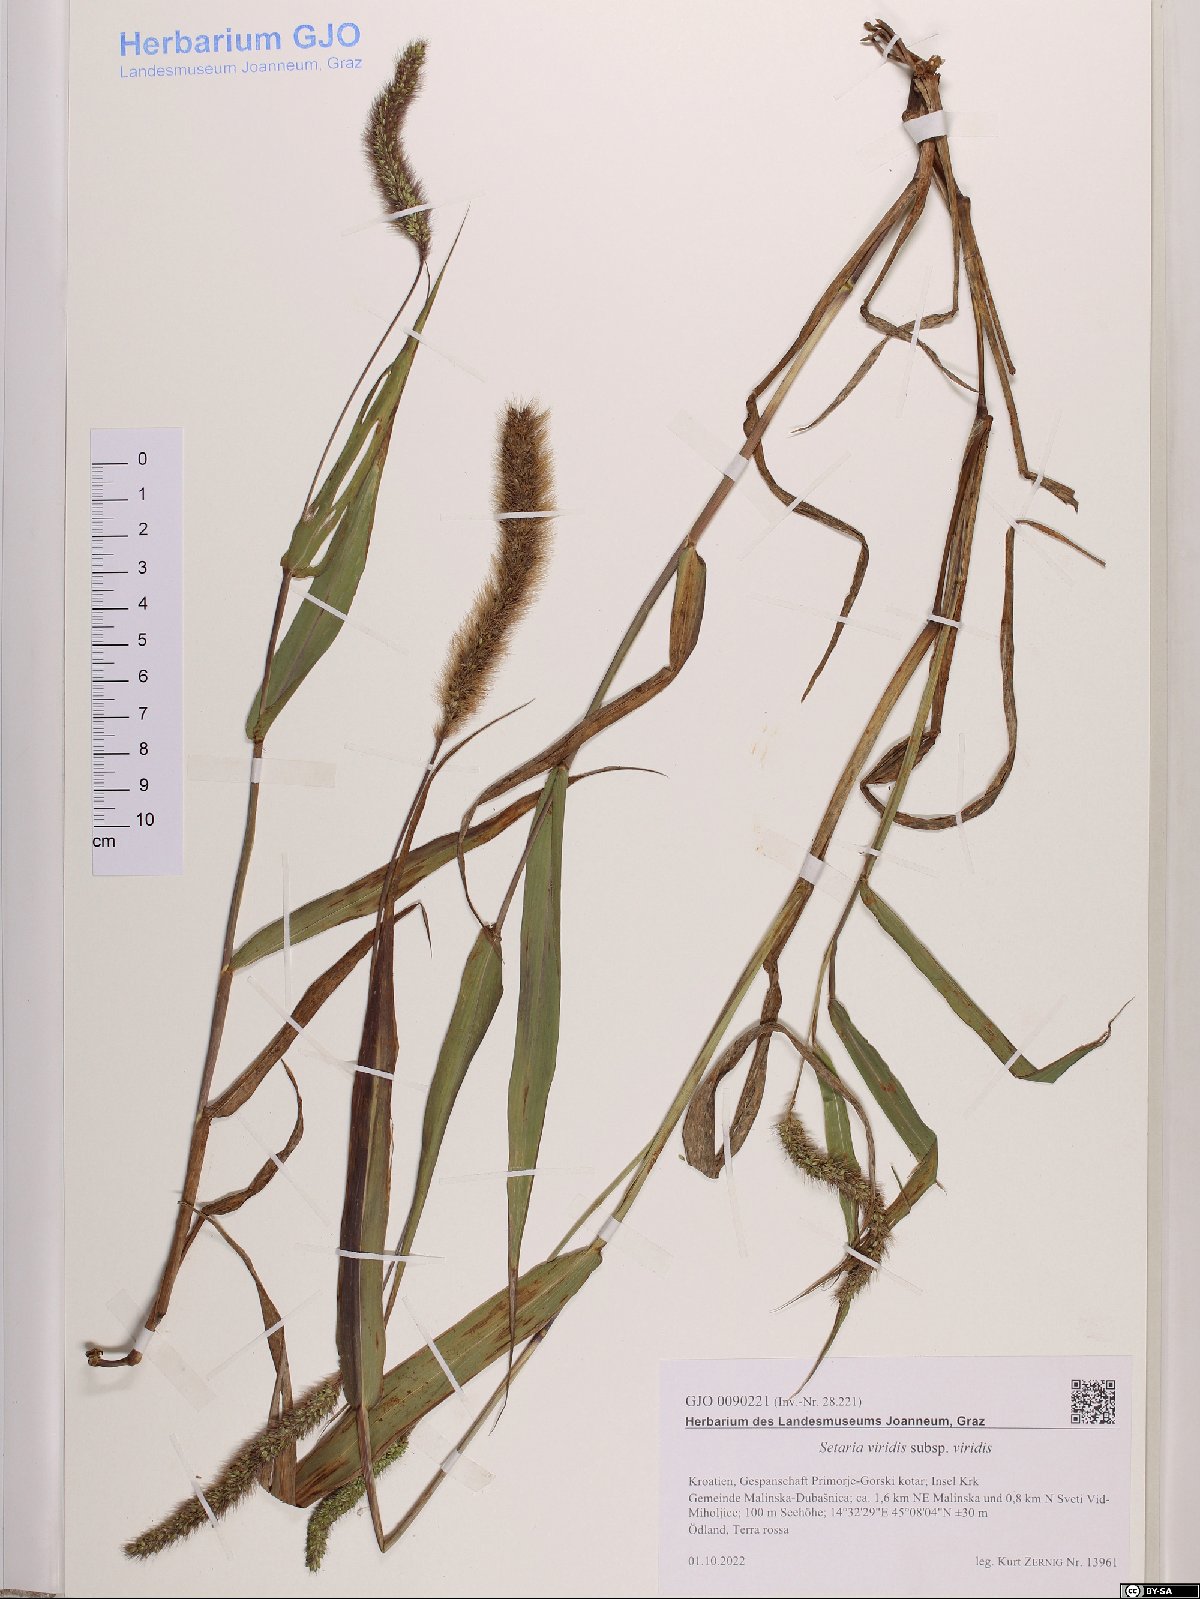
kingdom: Plantae
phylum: Tracheophyta
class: Liliopsida
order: Poales
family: Poaceae
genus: Setaria
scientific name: Setaria viridis
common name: Green bristlegrass
